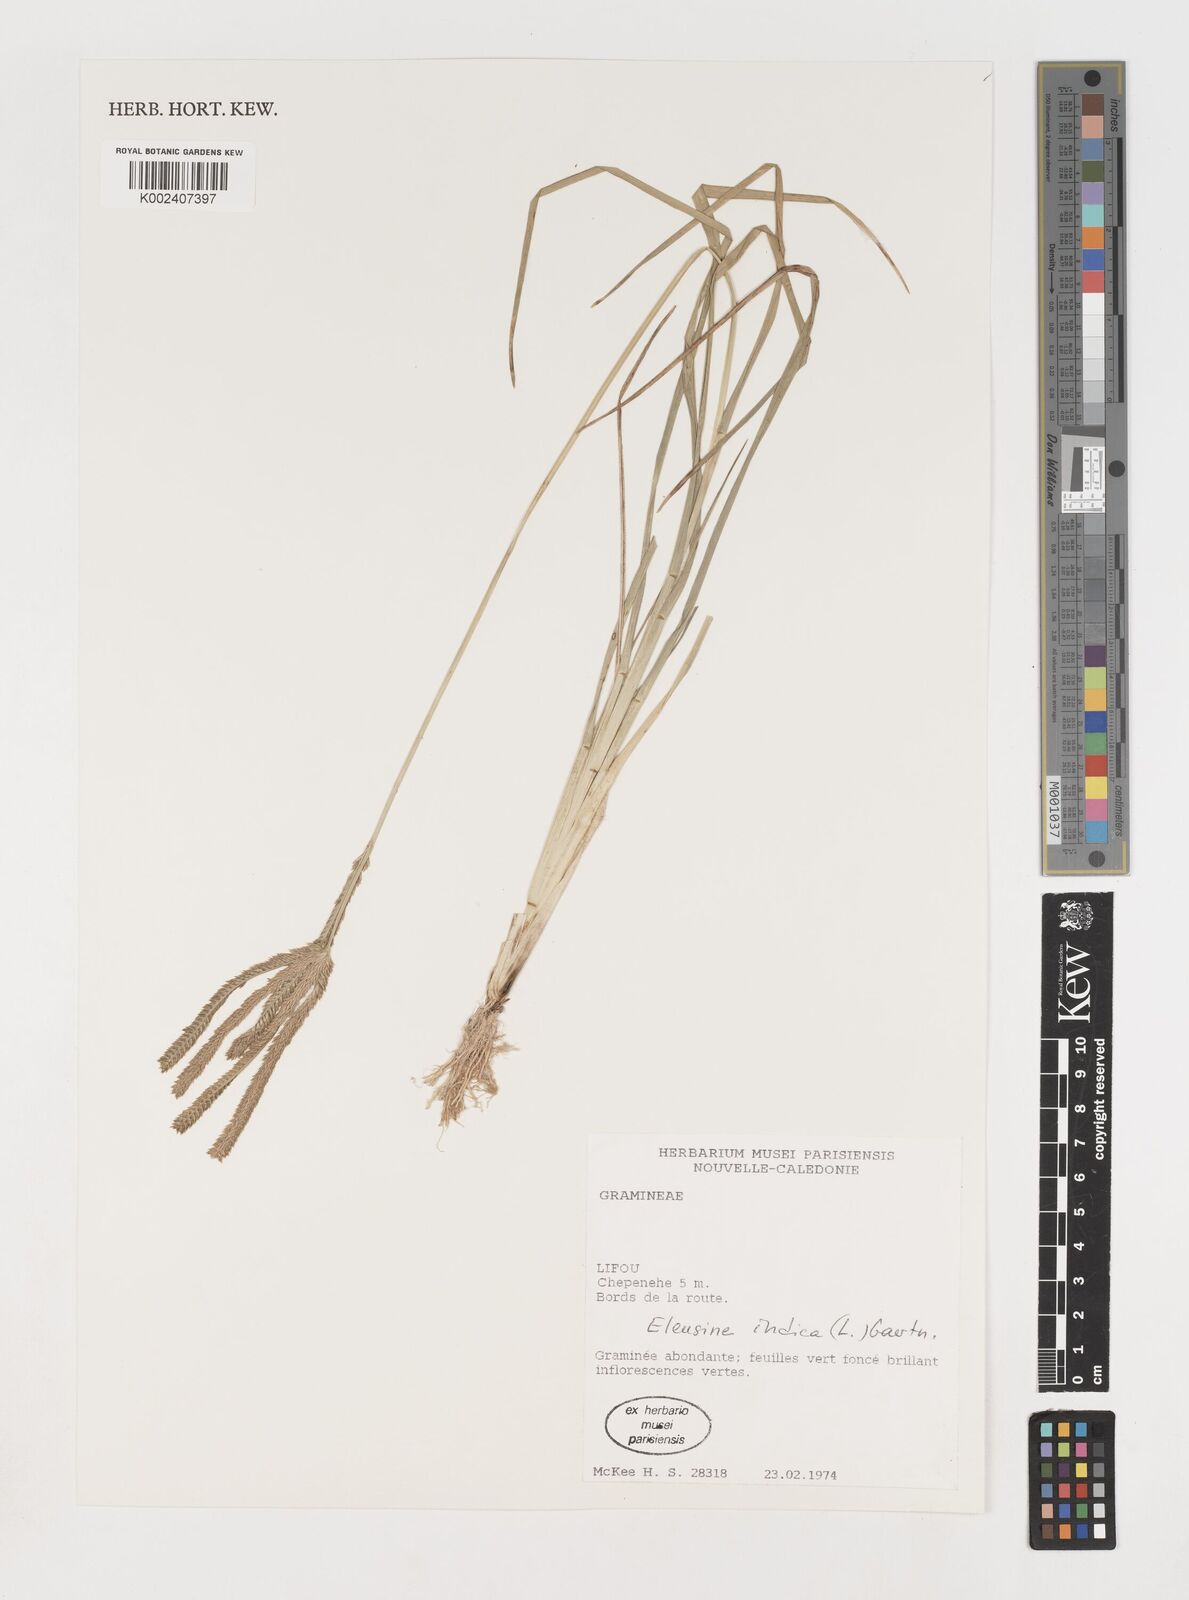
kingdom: Plantae
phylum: Tracheophyta
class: Liliopsida
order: Poales
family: Poaceae
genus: Eleusine
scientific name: Eleusine indica
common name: Yard-grass
